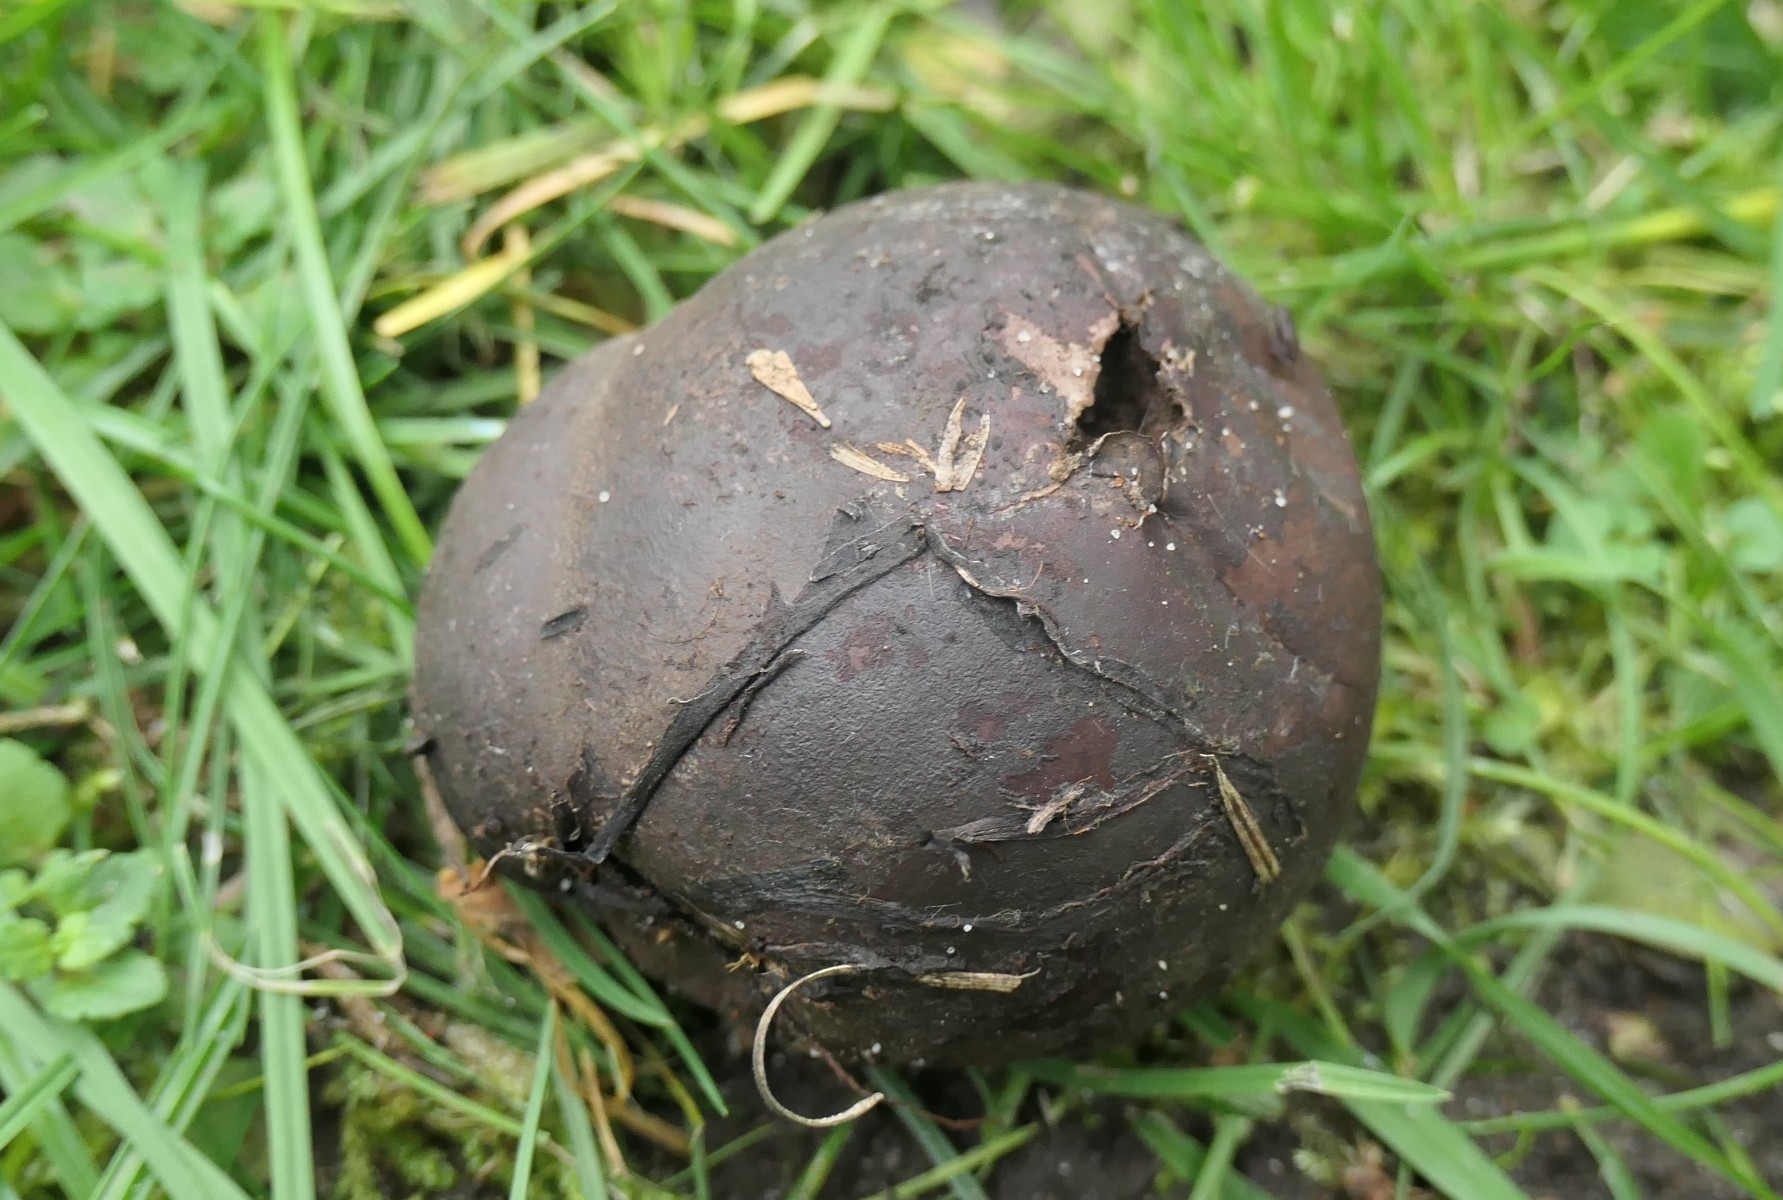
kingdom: Fungi
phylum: Basidiomycota
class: Agaricomycetes
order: Agaricales
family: Lycoperdaceae
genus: Bovista
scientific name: Bovista nigrescens
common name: sortagtig bovist
